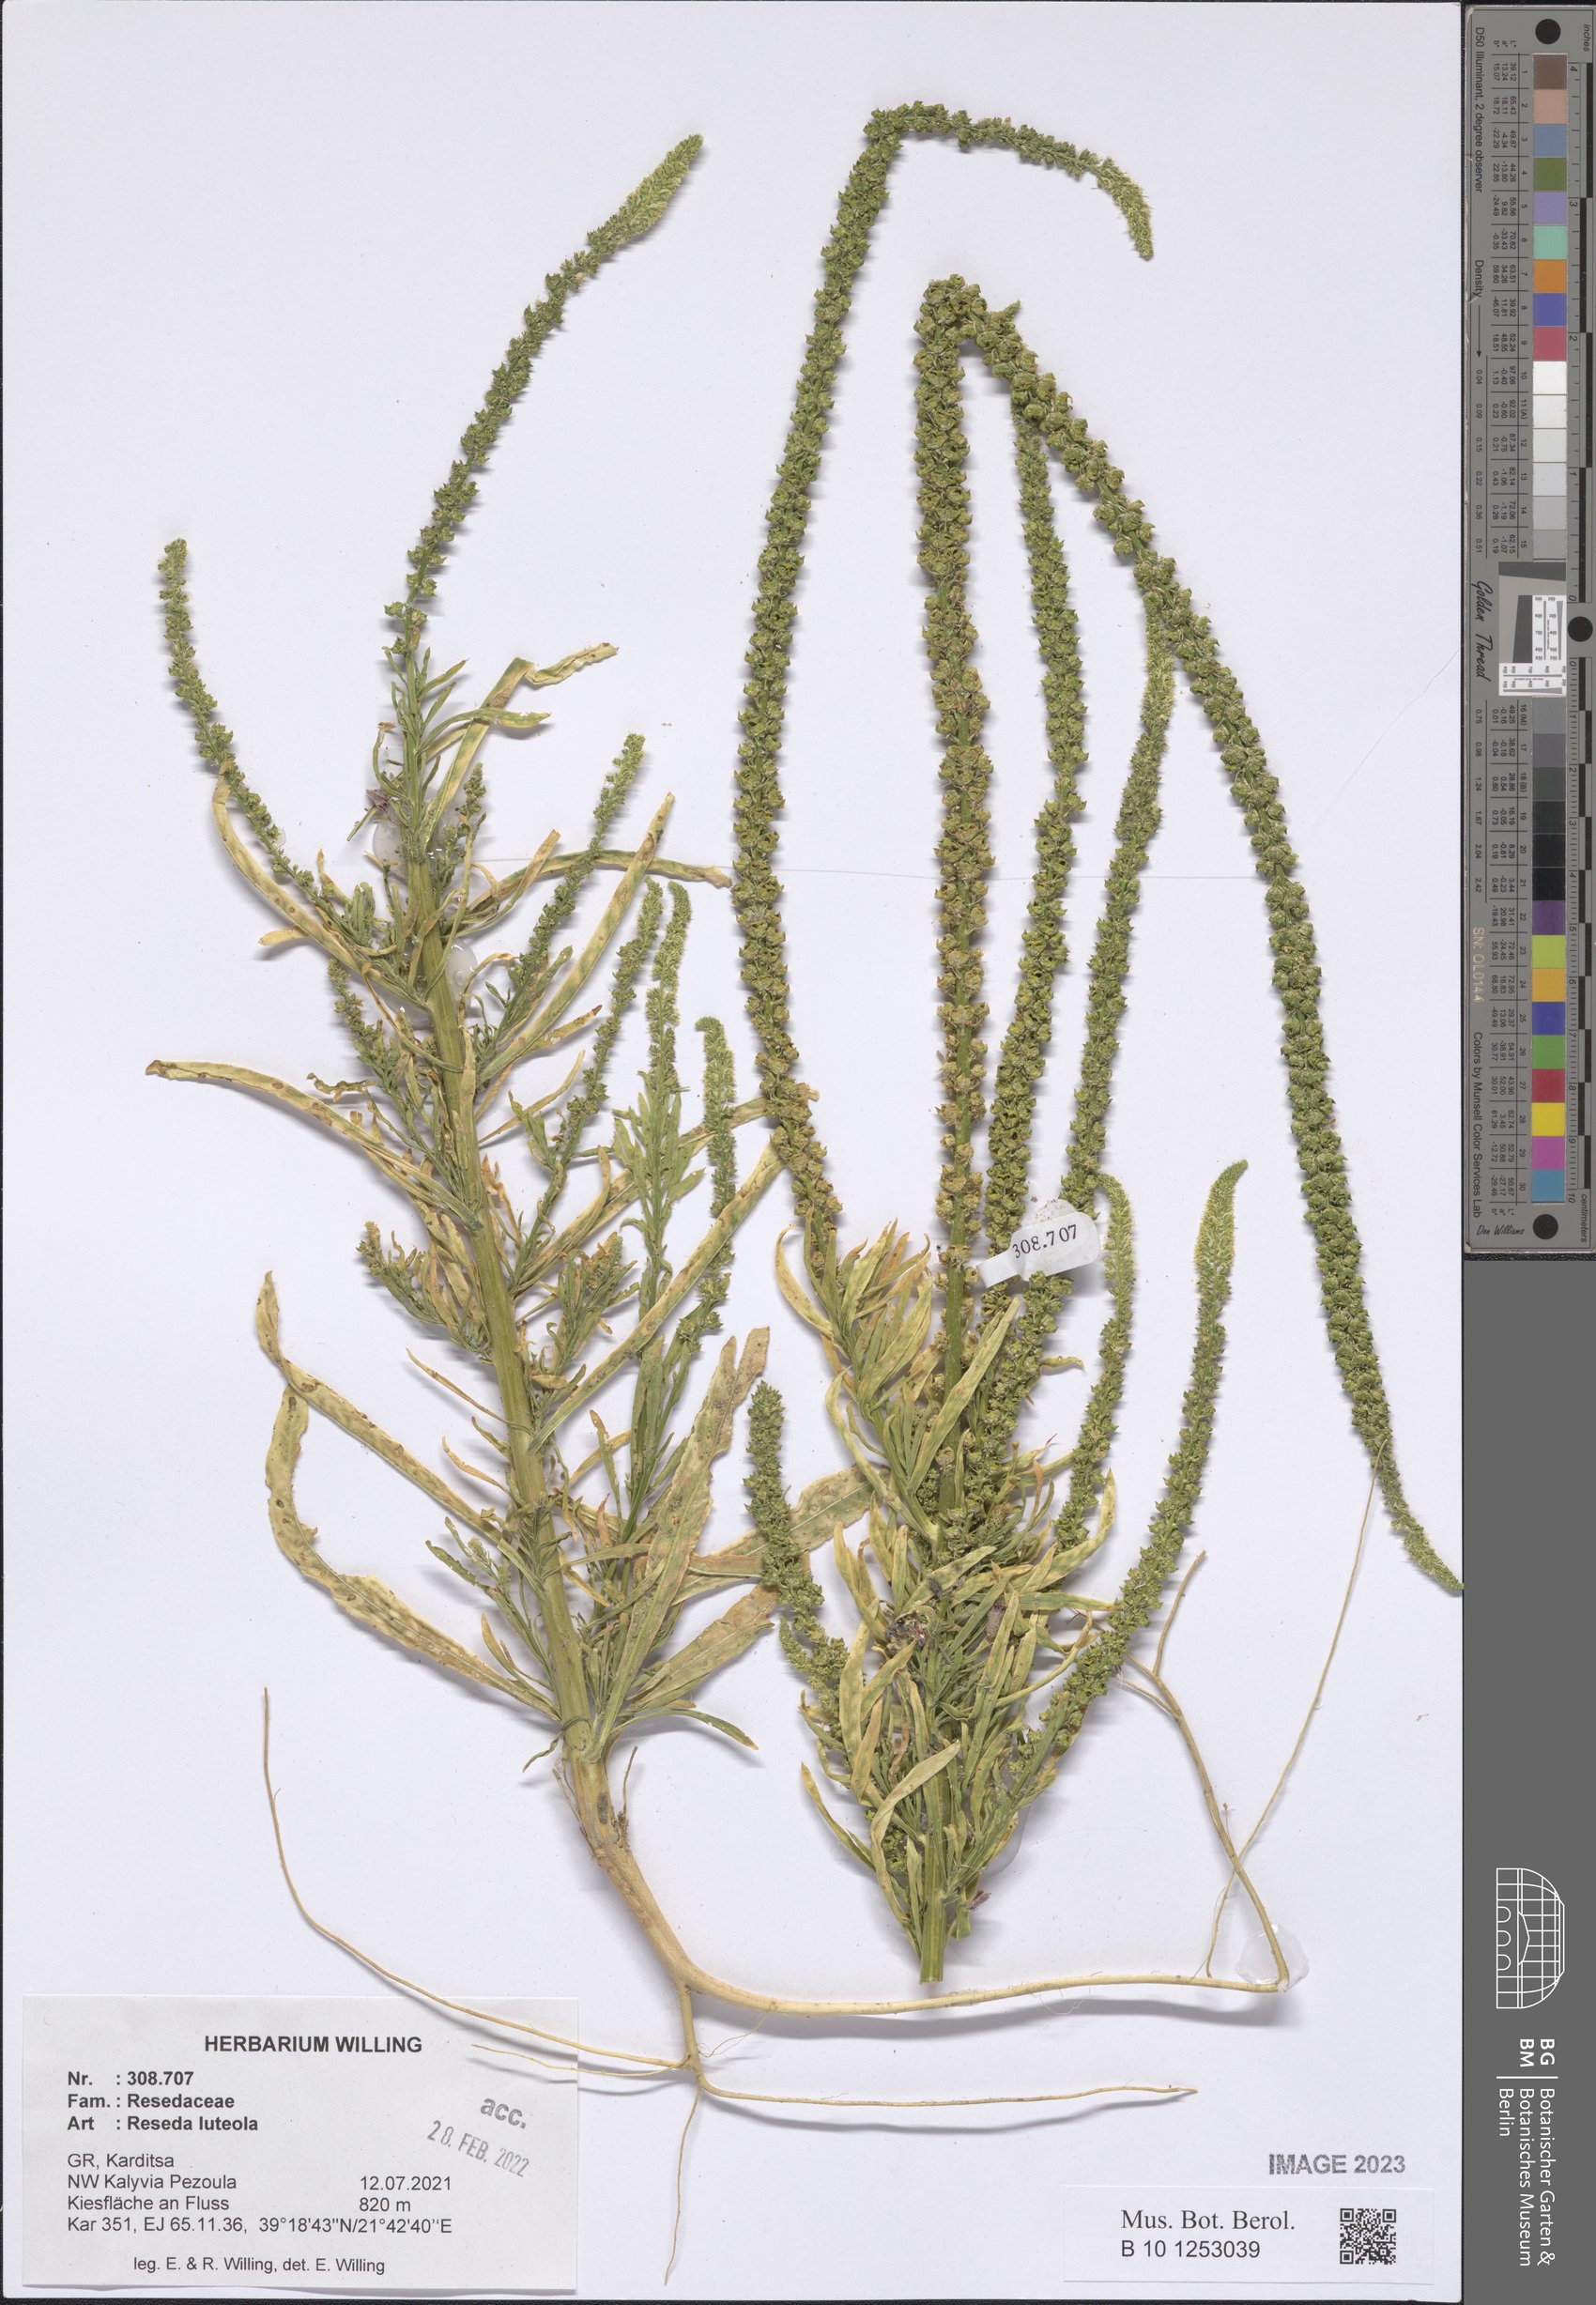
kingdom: Plantae
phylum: Tracheophyta
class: Magnoliopsida
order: Brassicales
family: Resedaceae
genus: Reseda
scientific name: Reseda luteola
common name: Weld
